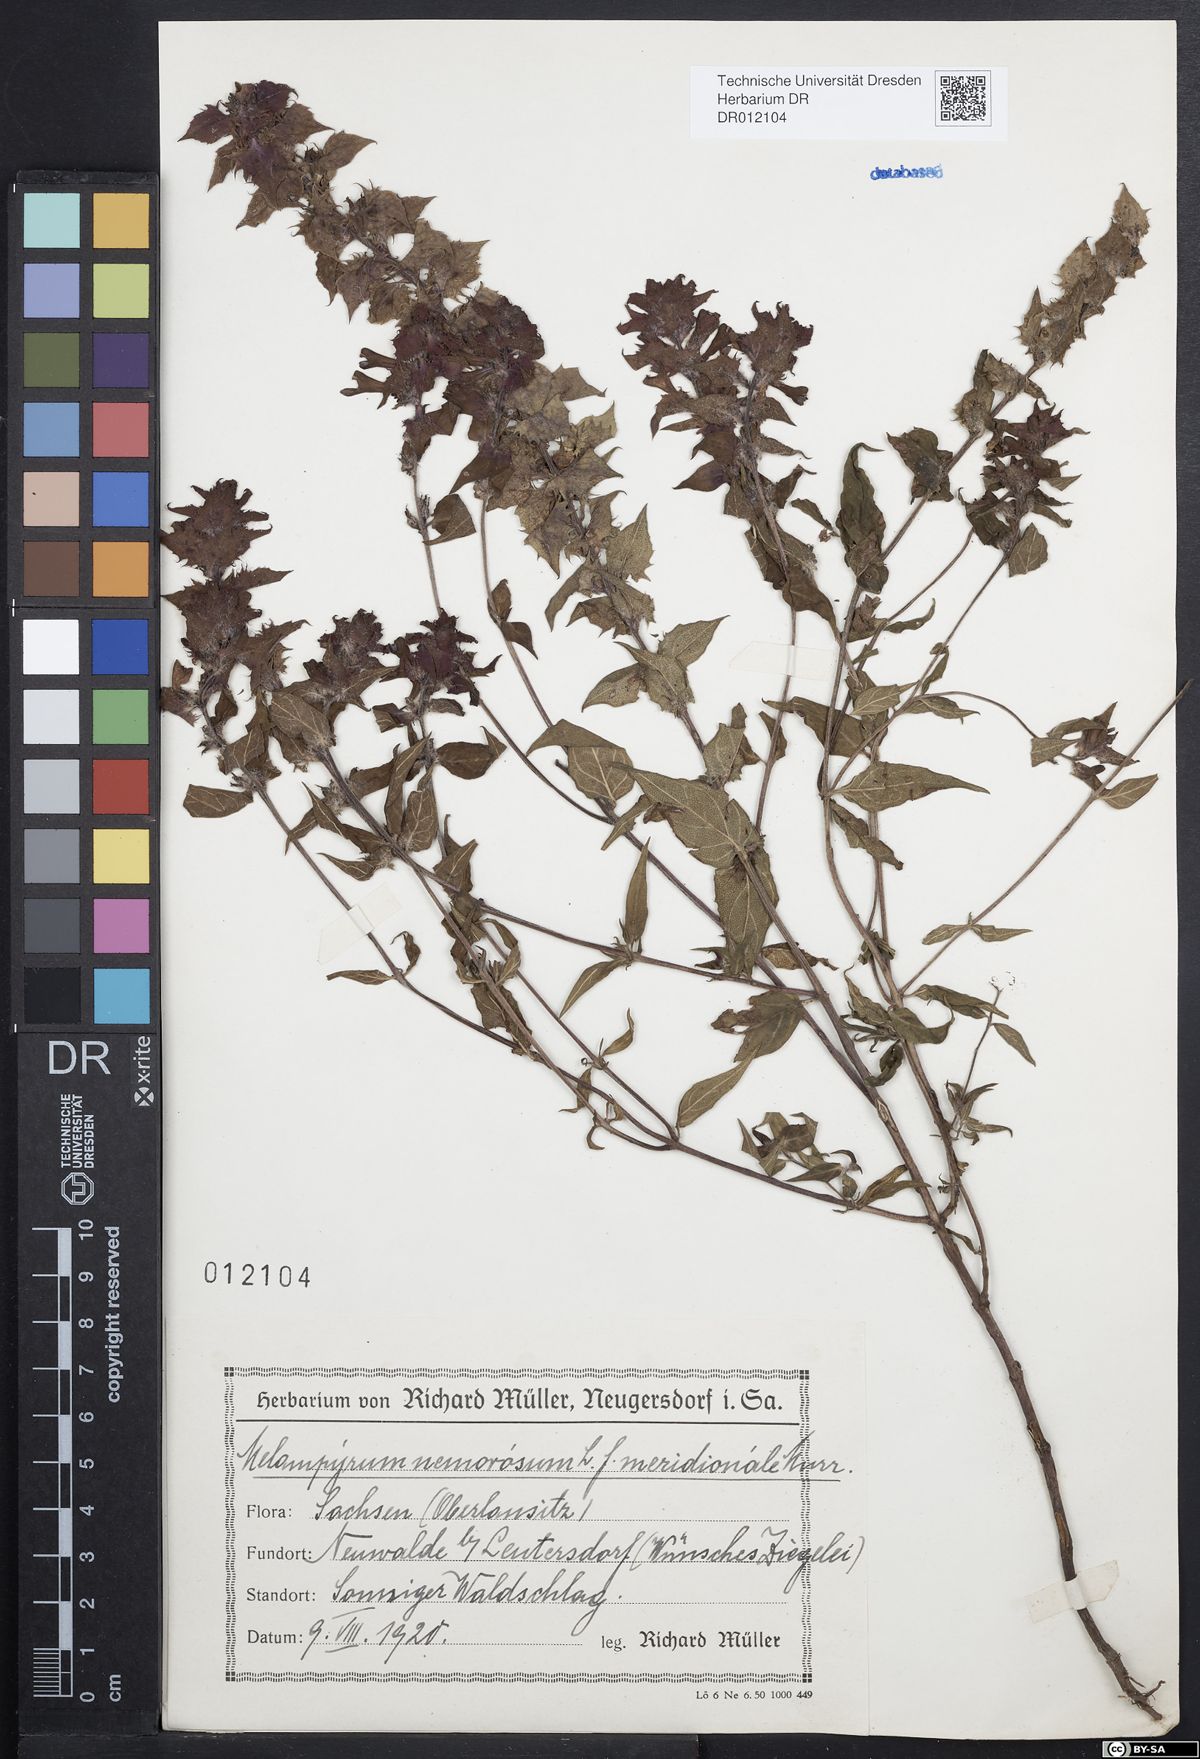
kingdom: Plantae
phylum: Tracheophyta
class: Magnoliopsida
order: Lamiales
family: Orobanchaceae
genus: Melampyrum
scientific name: Melampyrum nemorosum
